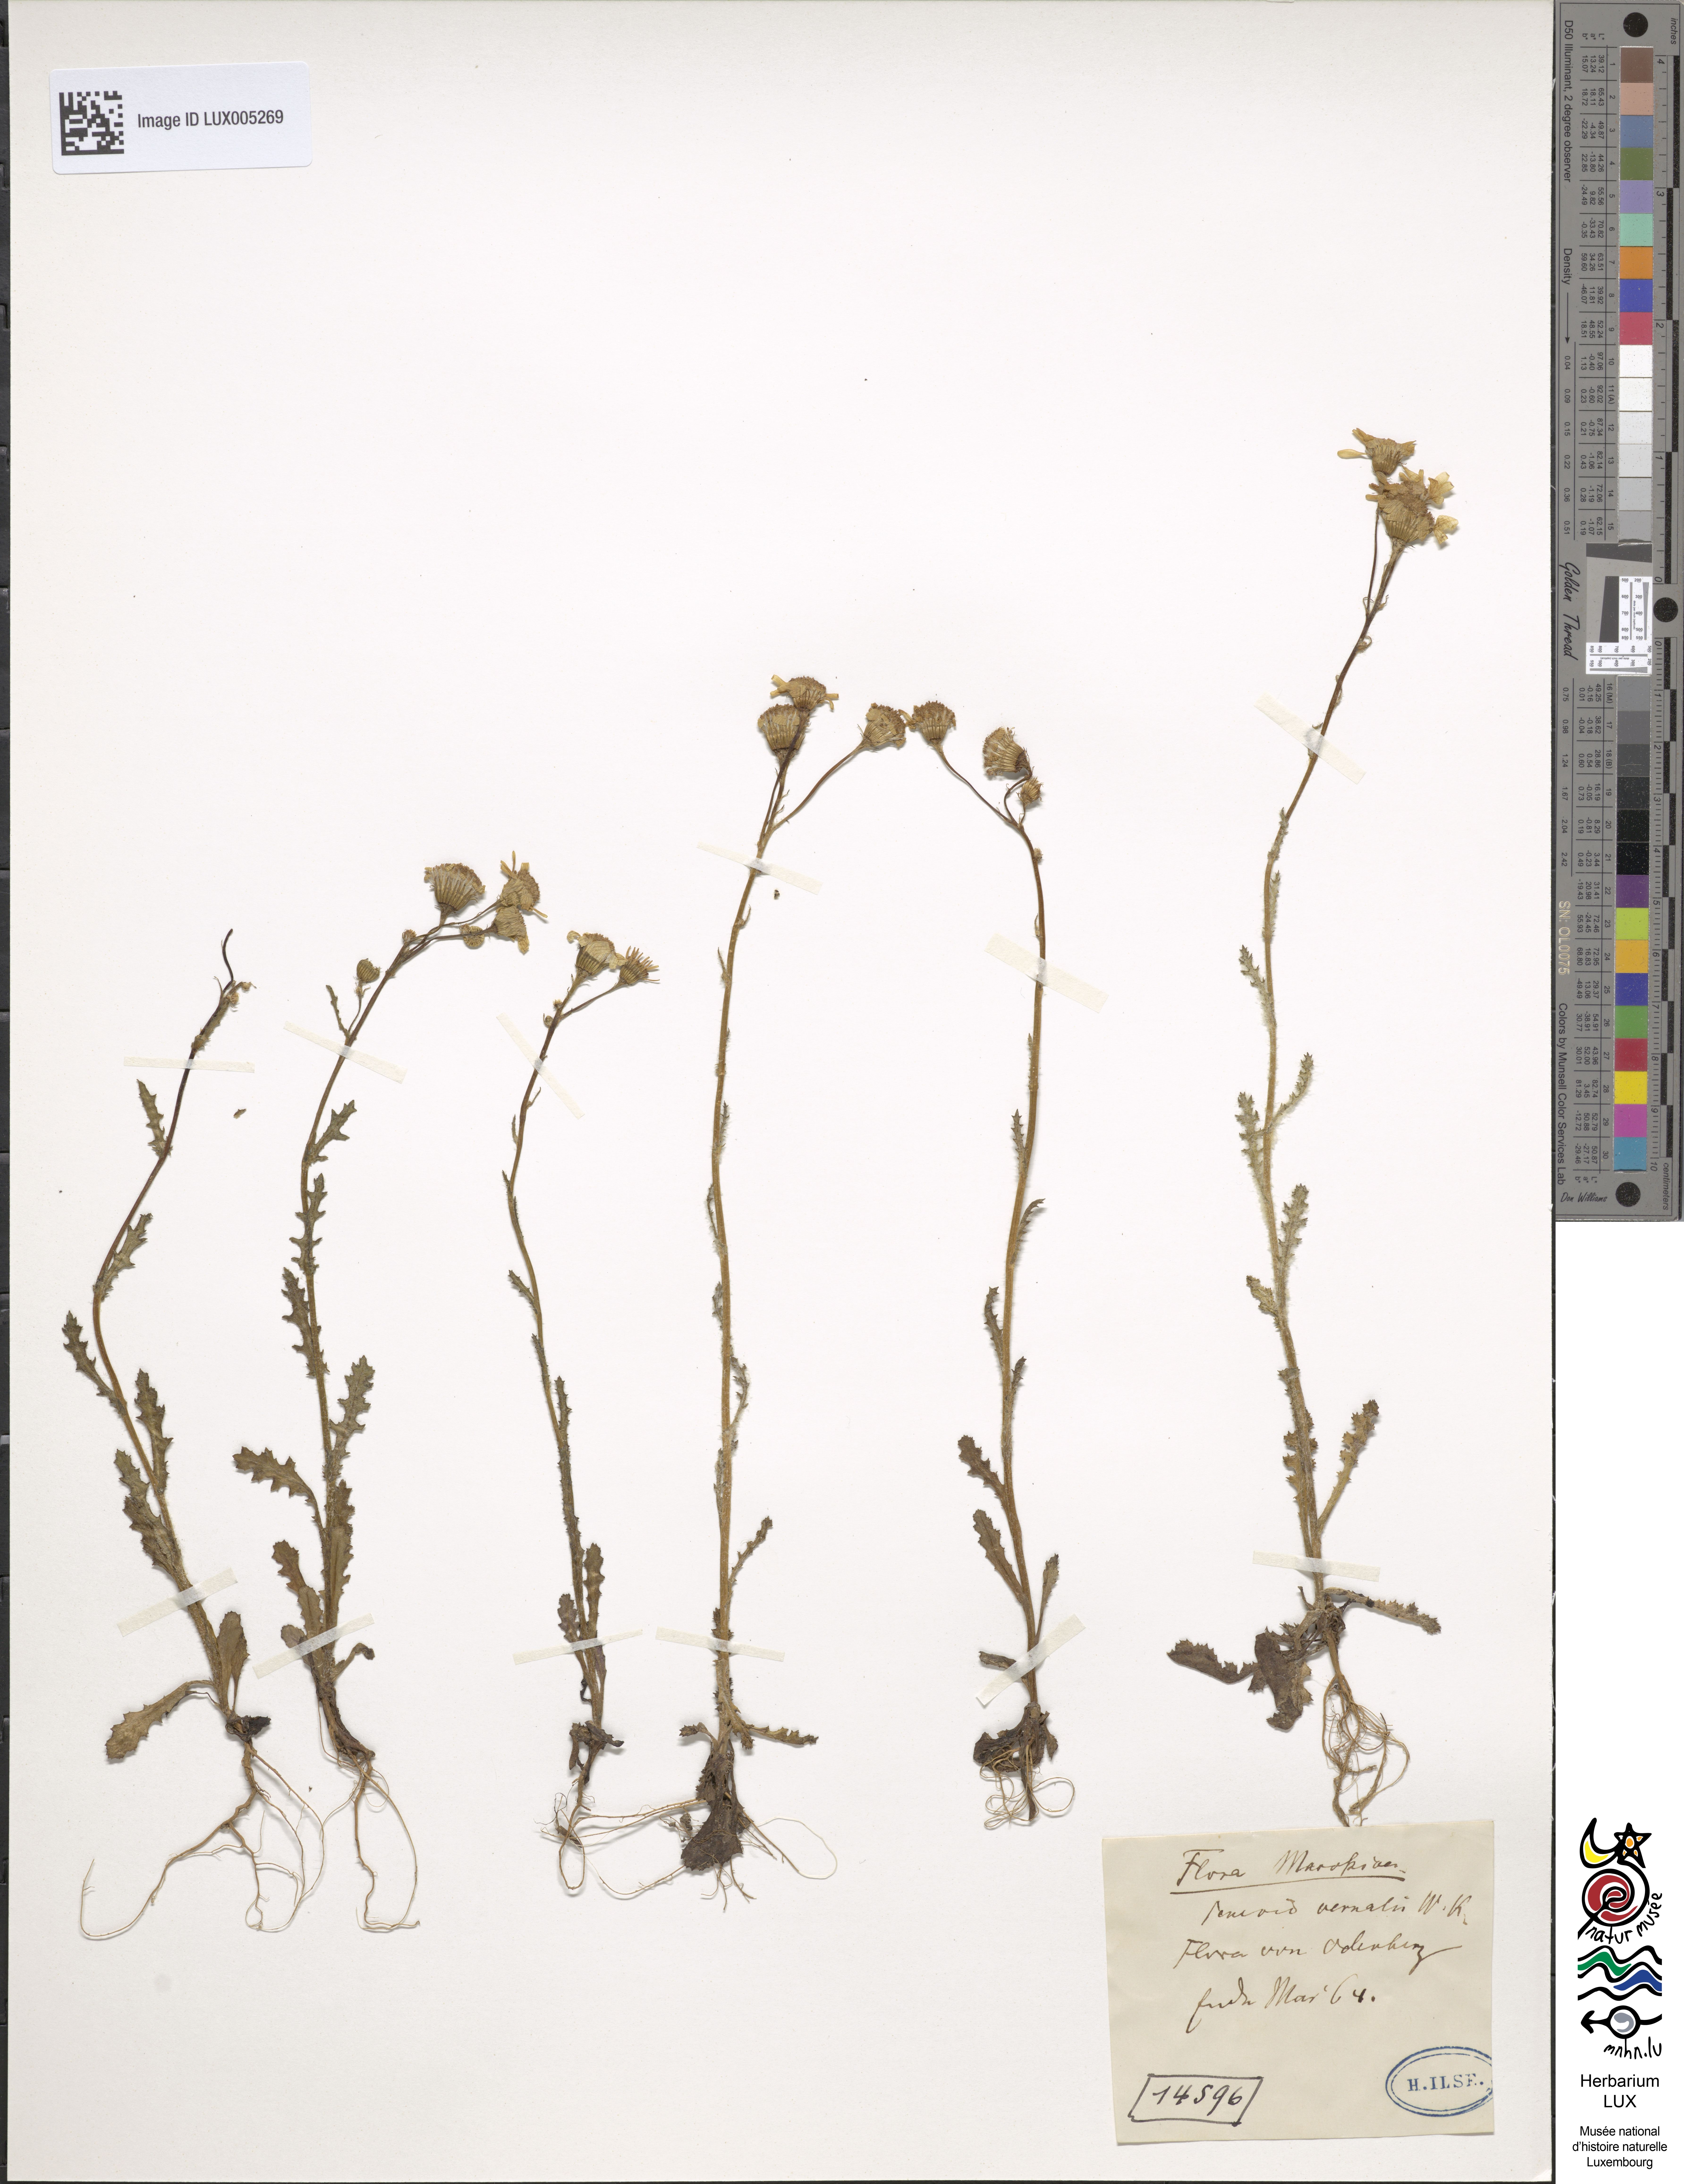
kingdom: Plantae
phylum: Tracheophyta
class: Magnoliopsida
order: Asterales
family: Asteraceae
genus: Senecio
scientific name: Senecio vernalis
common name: Eastern groundsel
